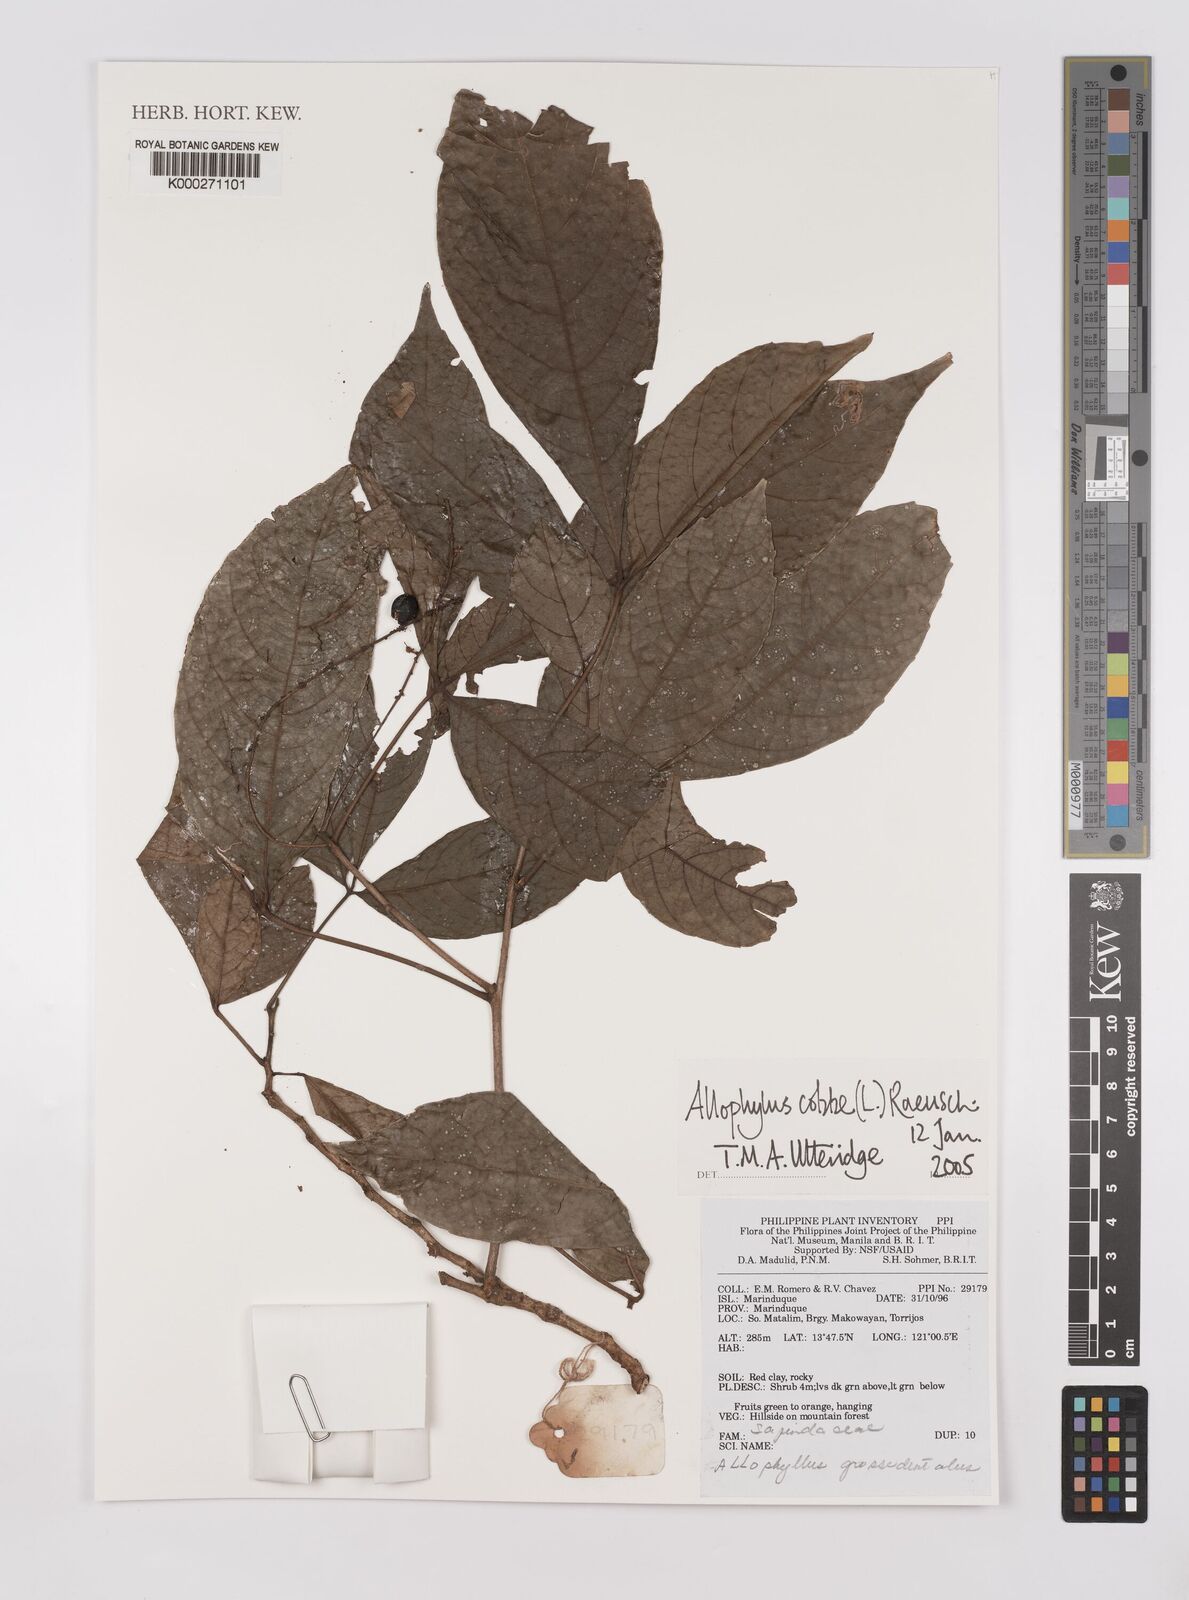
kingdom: Plantae
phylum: Tracheophyta
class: Magnoliopsida
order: Sapindales
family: Sapindaceae
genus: Allophylus
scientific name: Allophylus
